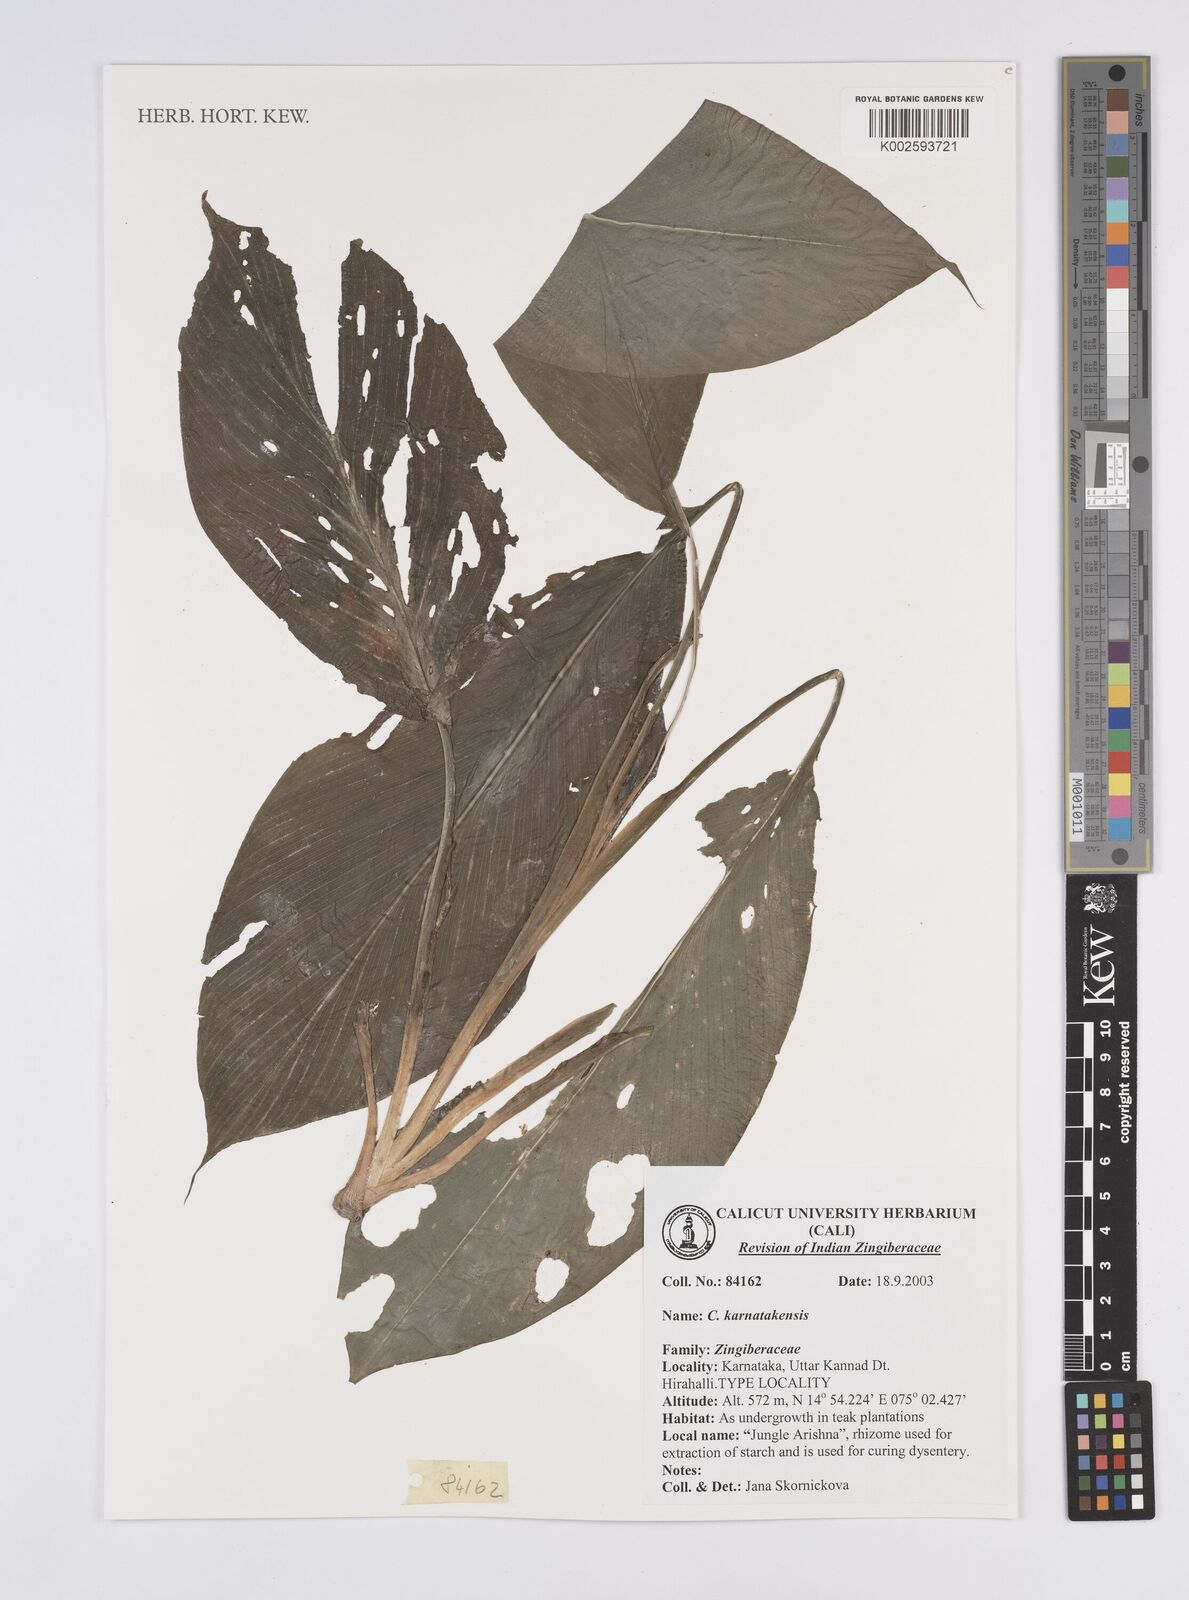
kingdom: Plantae
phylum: Tracheophyta
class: Liliopsida
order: Zingiberales
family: Zingiberaceae
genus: Curcuma
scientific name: Curcuma karnatakensis
